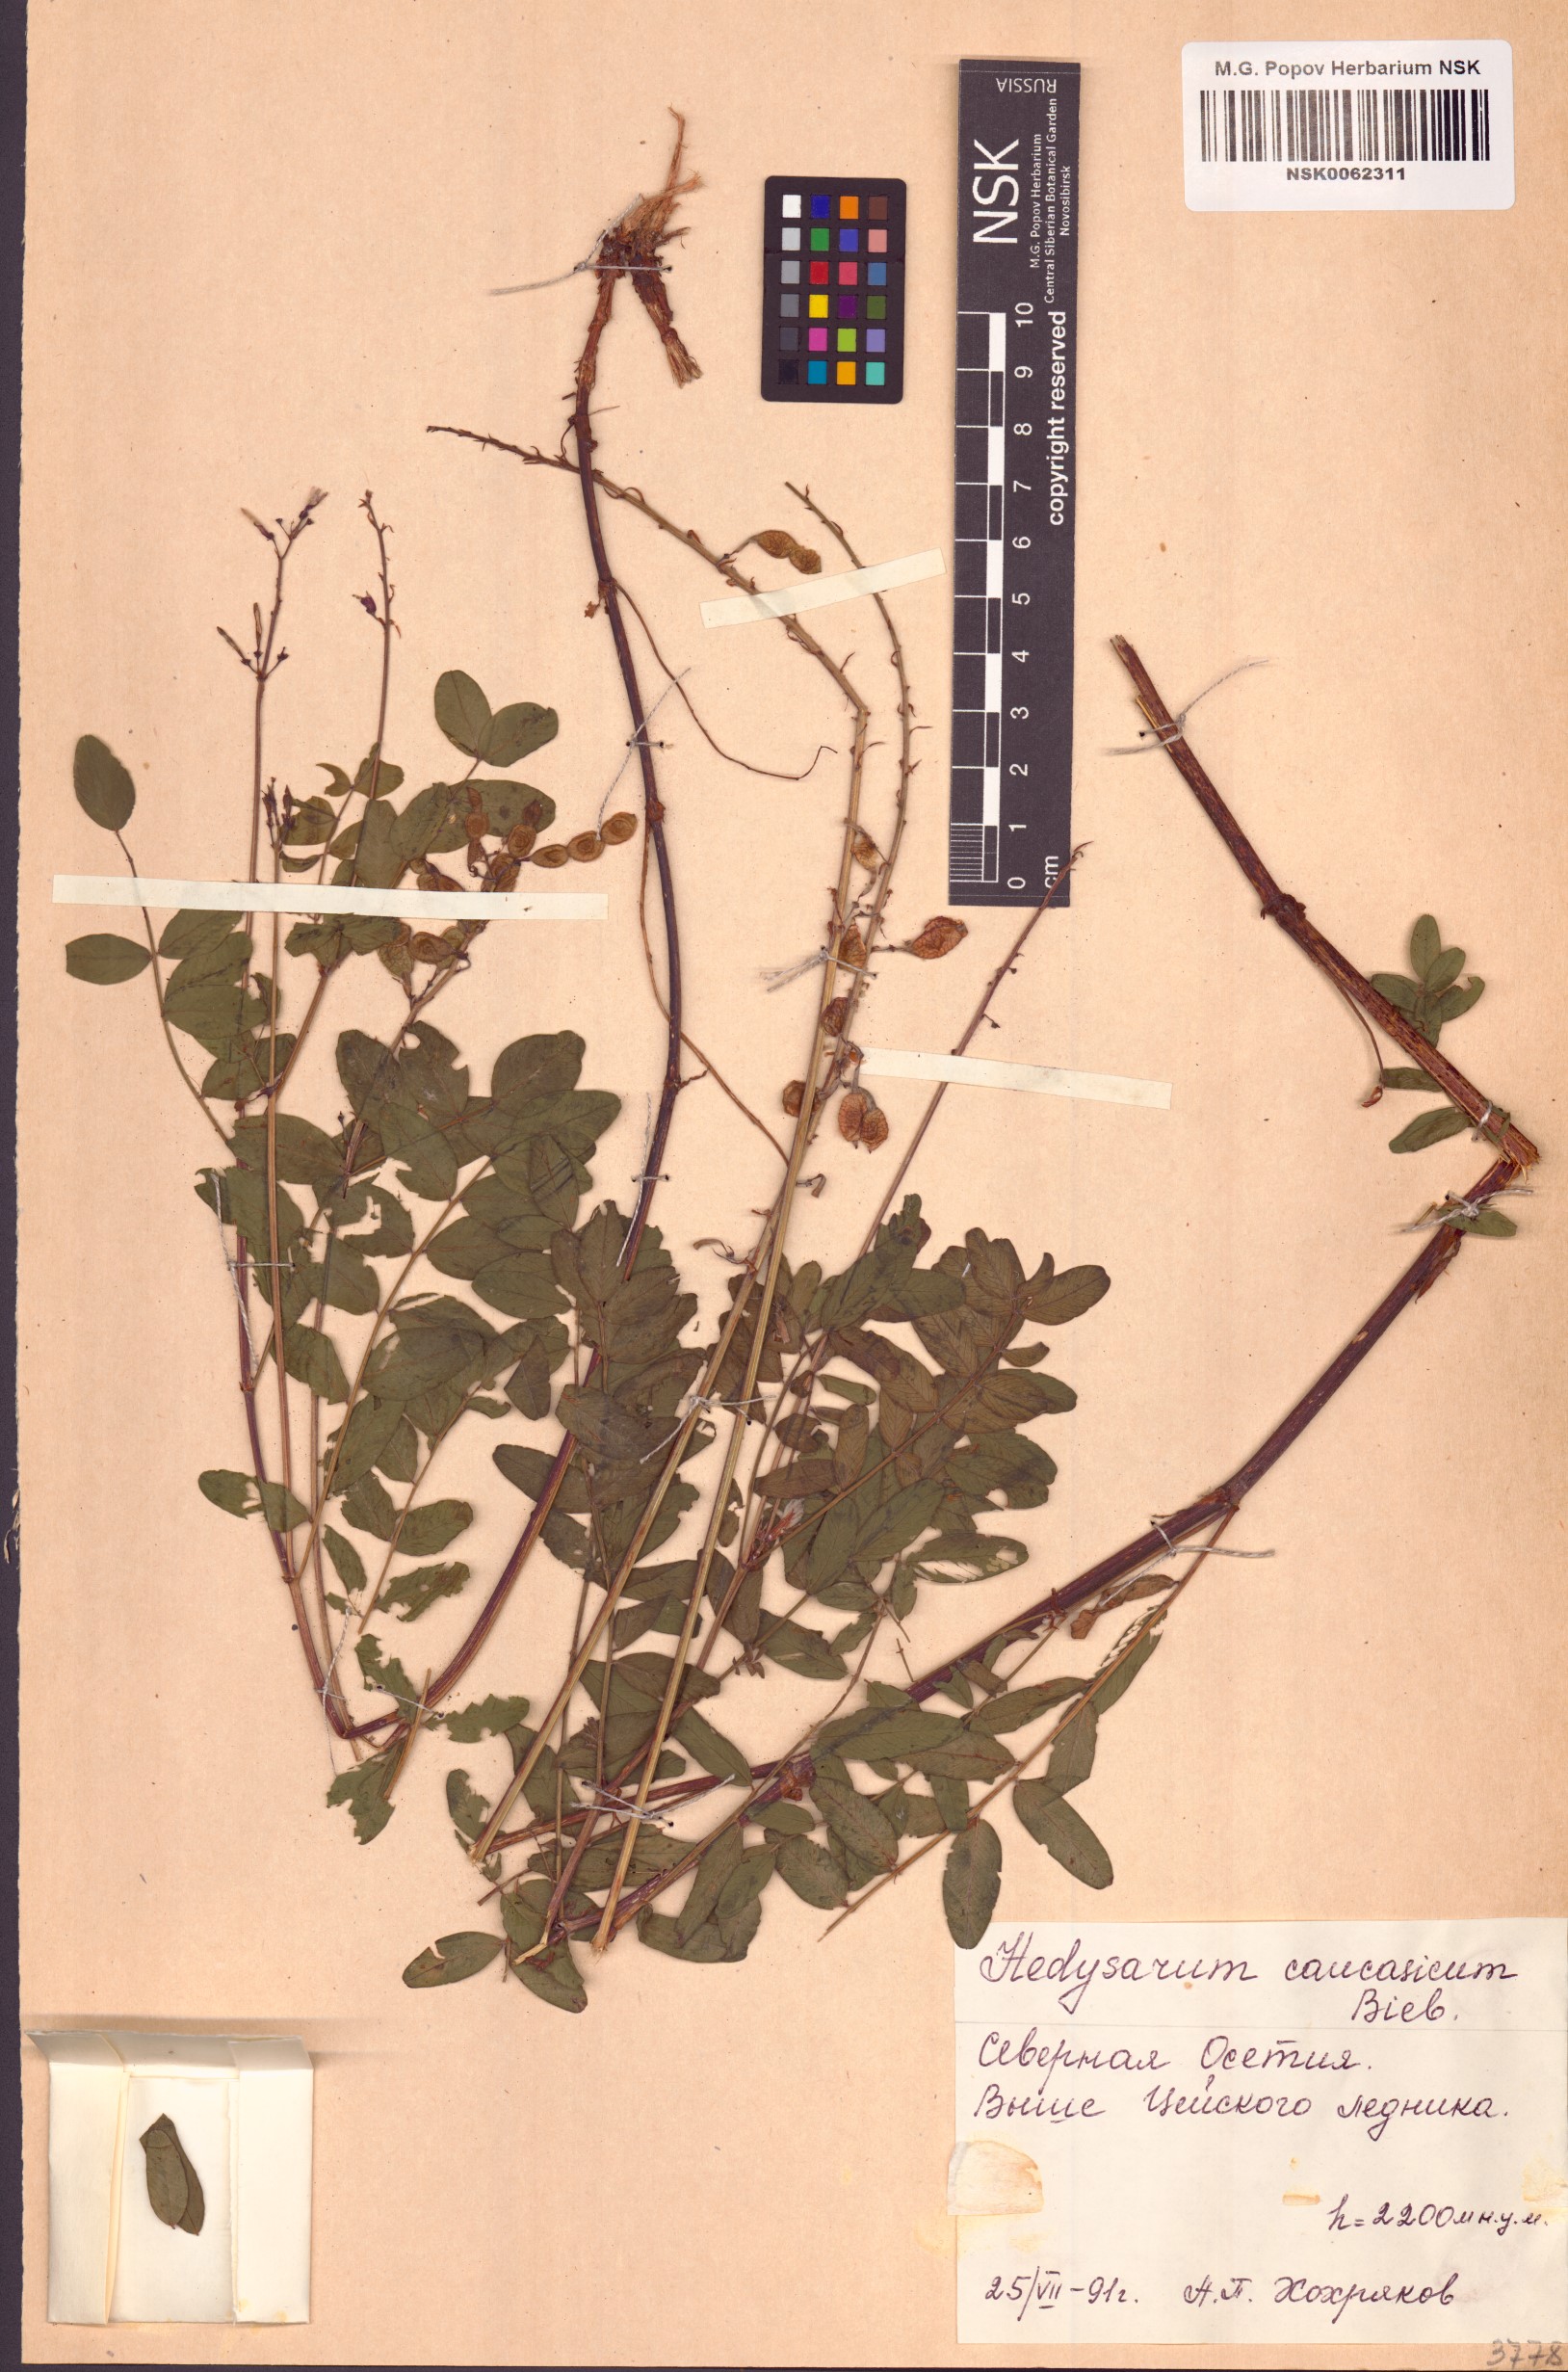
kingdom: Plantae
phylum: Tracheophyta
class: Magnoliopsida
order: Fabales
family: Fabaceae
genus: Hedysarum
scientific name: Hedysarum caucasicum
